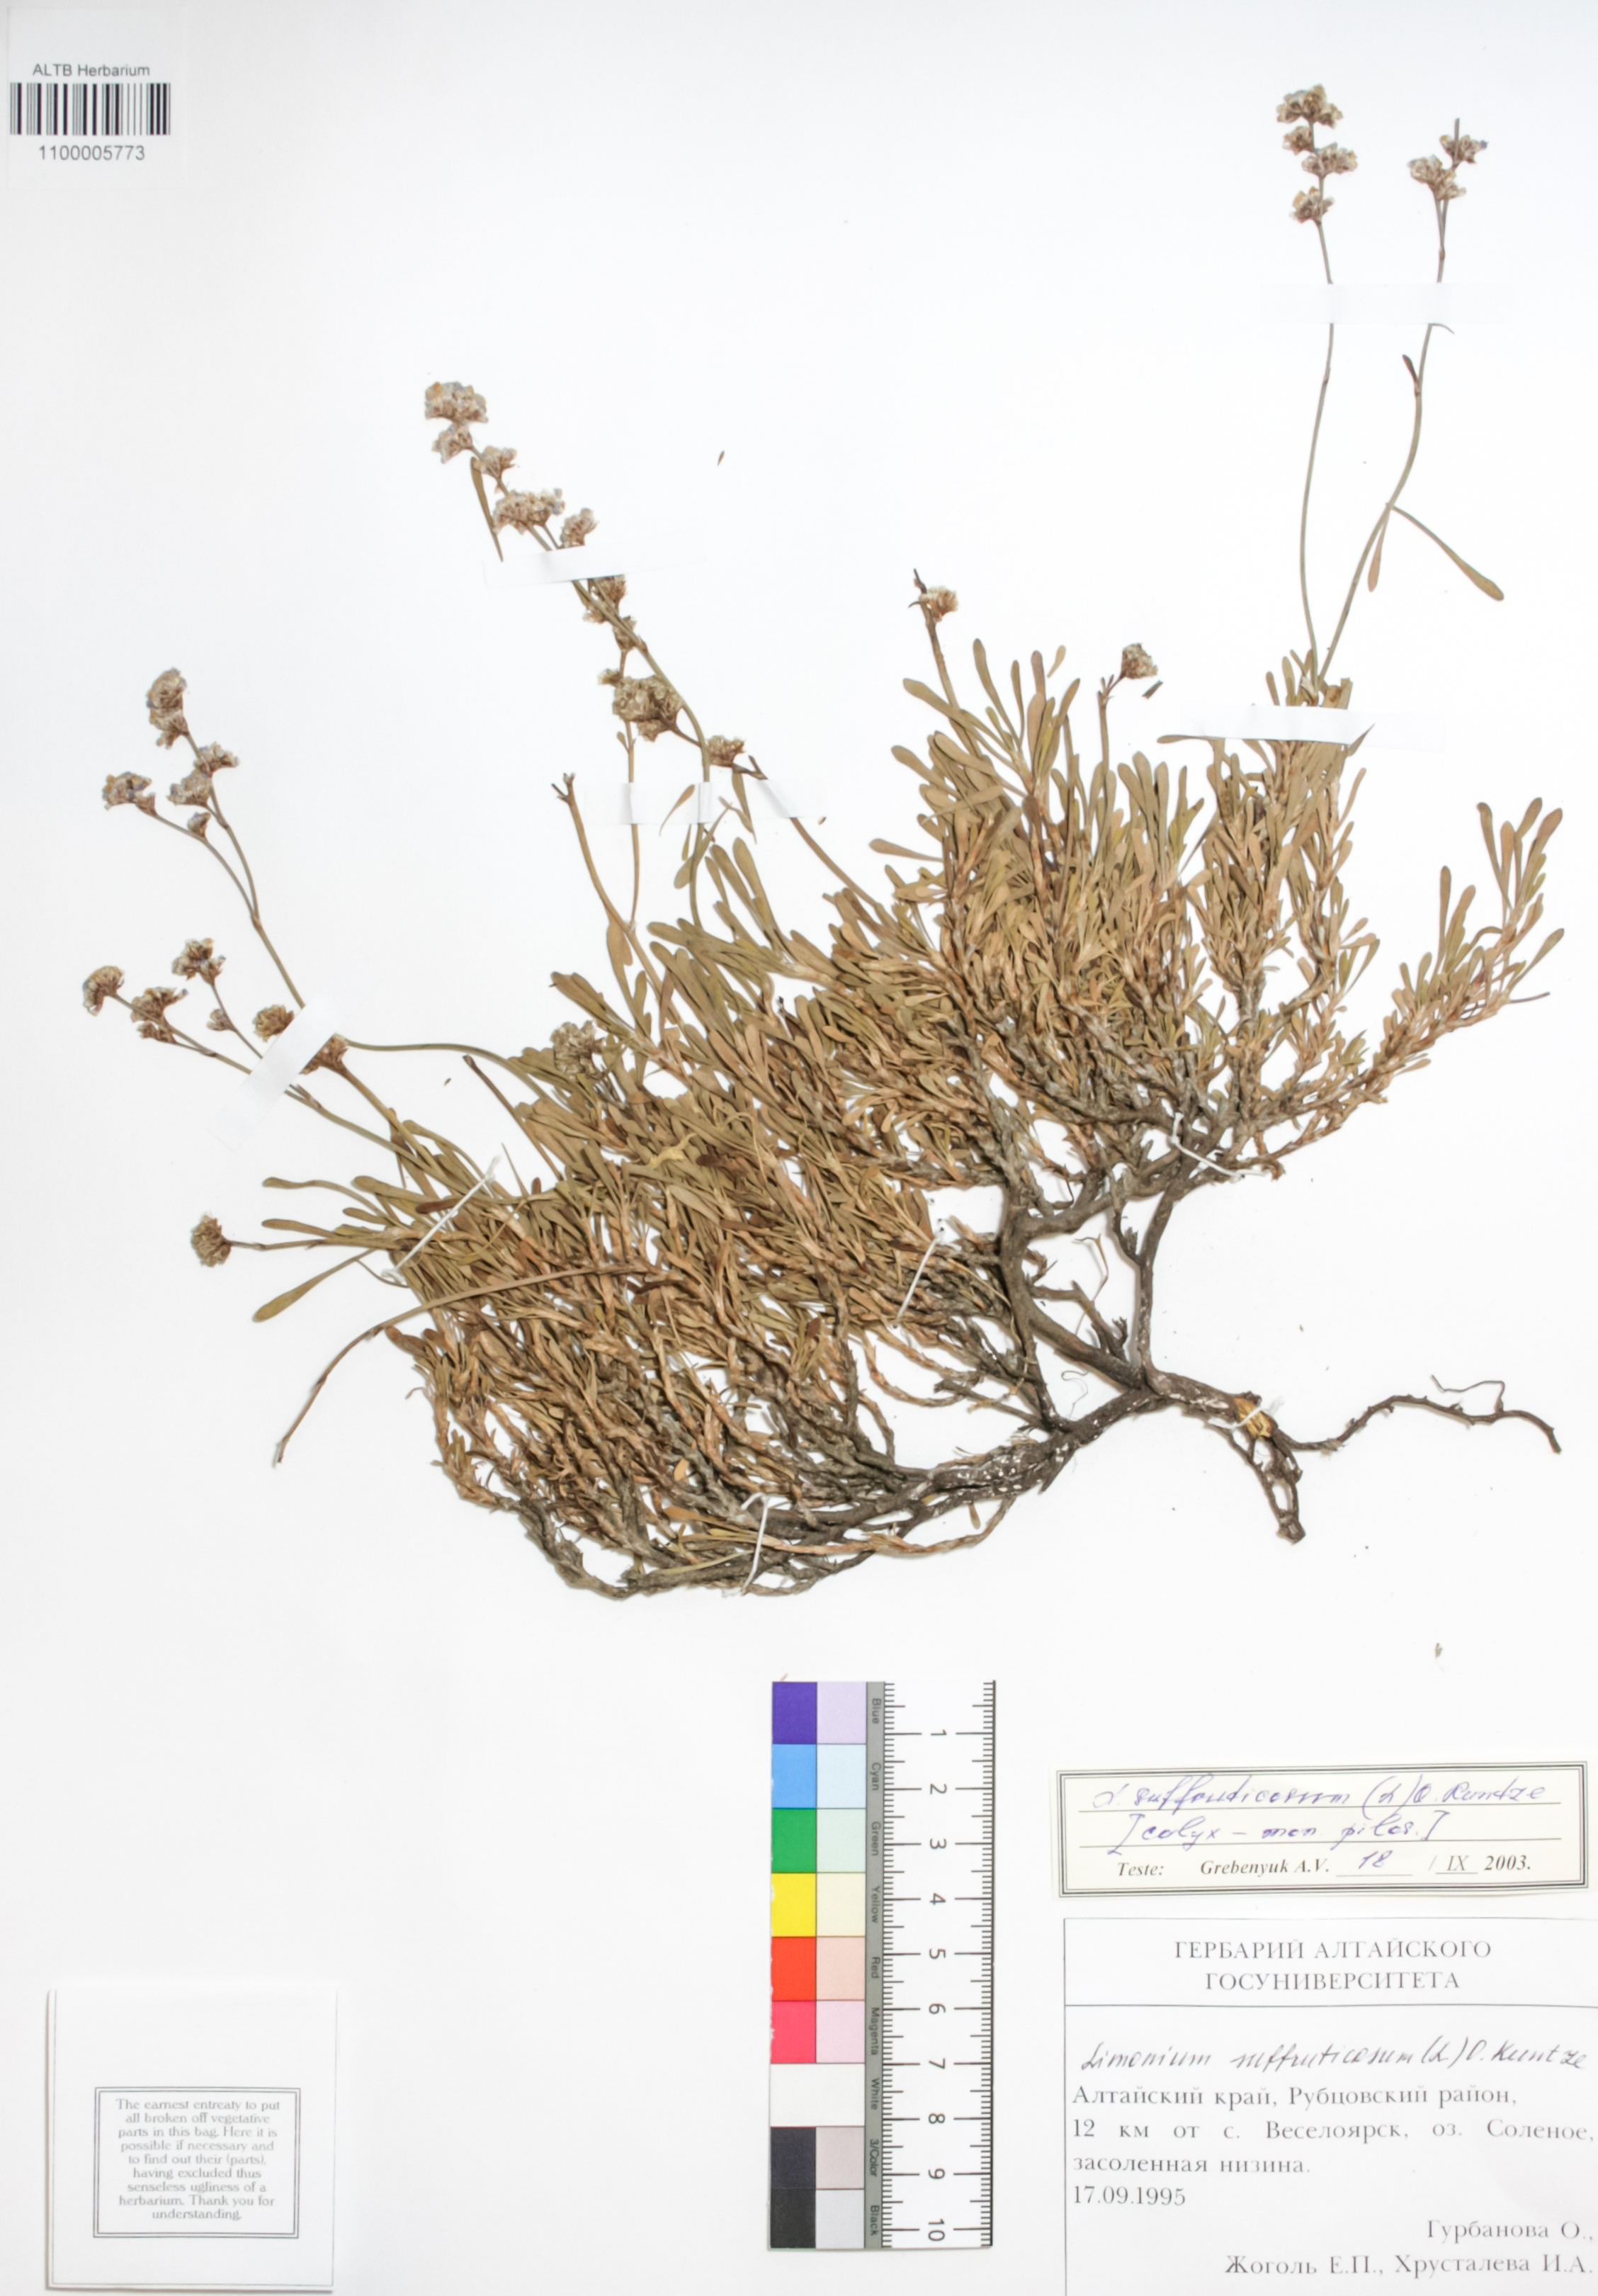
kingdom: Plantae
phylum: Tracheophyta
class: Magnoliopsida
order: Caryophyllales
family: Plumbaginaceae
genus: Limonium
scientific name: Limonium suffruticosum
